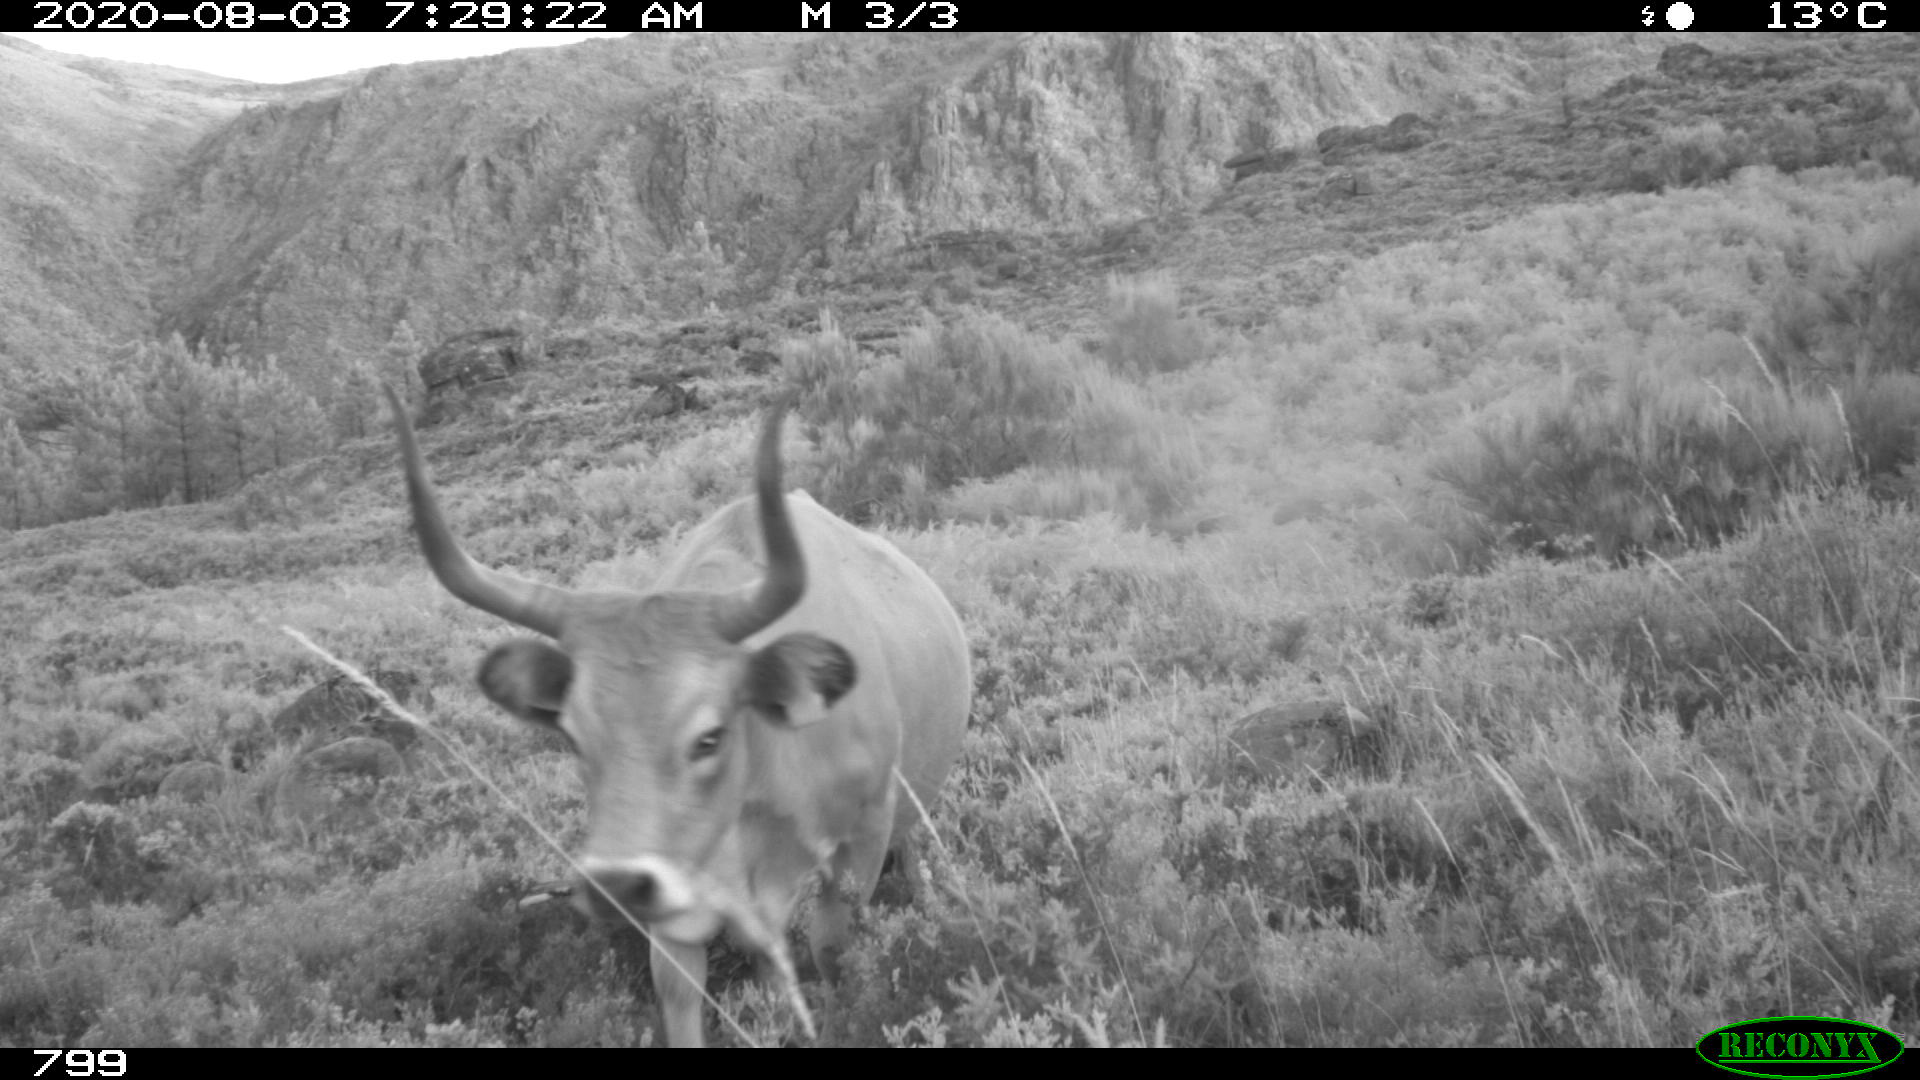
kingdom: Animalia
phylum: Chordata
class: Mammalia
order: Artiodactyla
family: Bovidae
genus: Bos
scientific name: Bos taurus
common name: Domesticated cattle
